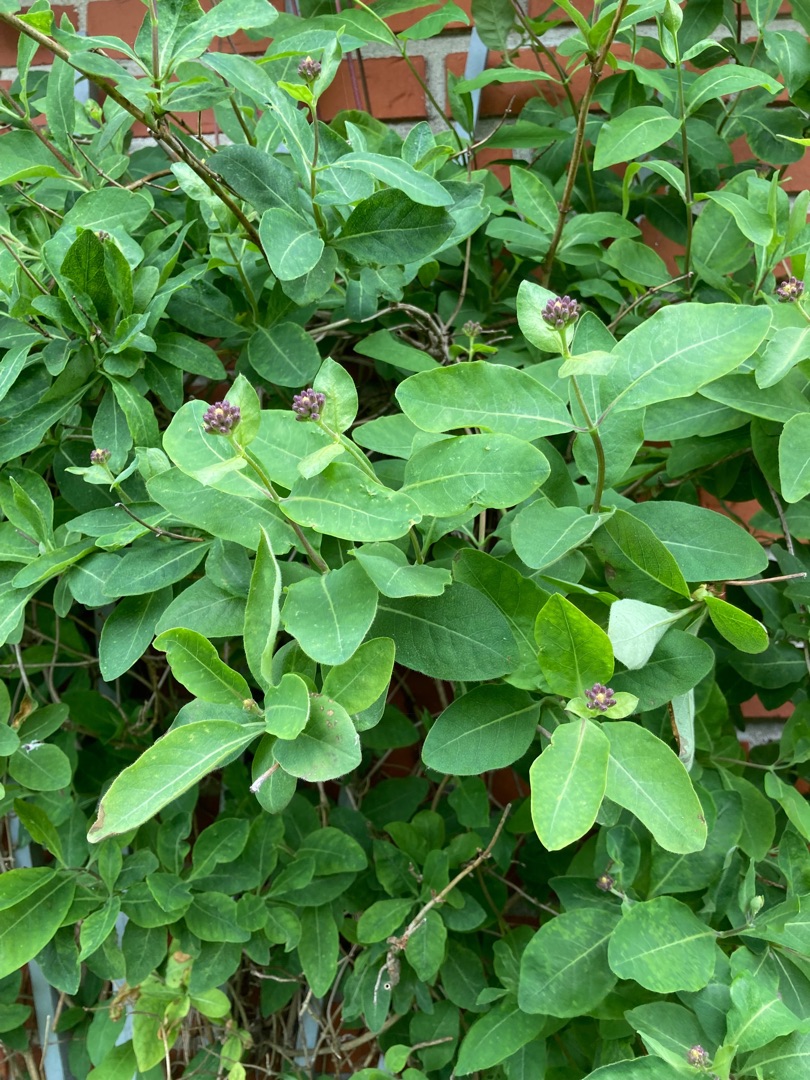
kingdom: Plantae
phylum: Tracheophyta
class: Magnoliopsida
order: Dipsacales
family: Caprifoliaceae
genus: Lonicera
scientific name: Lonicera periclymenum
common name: Almindelig gedeblad
